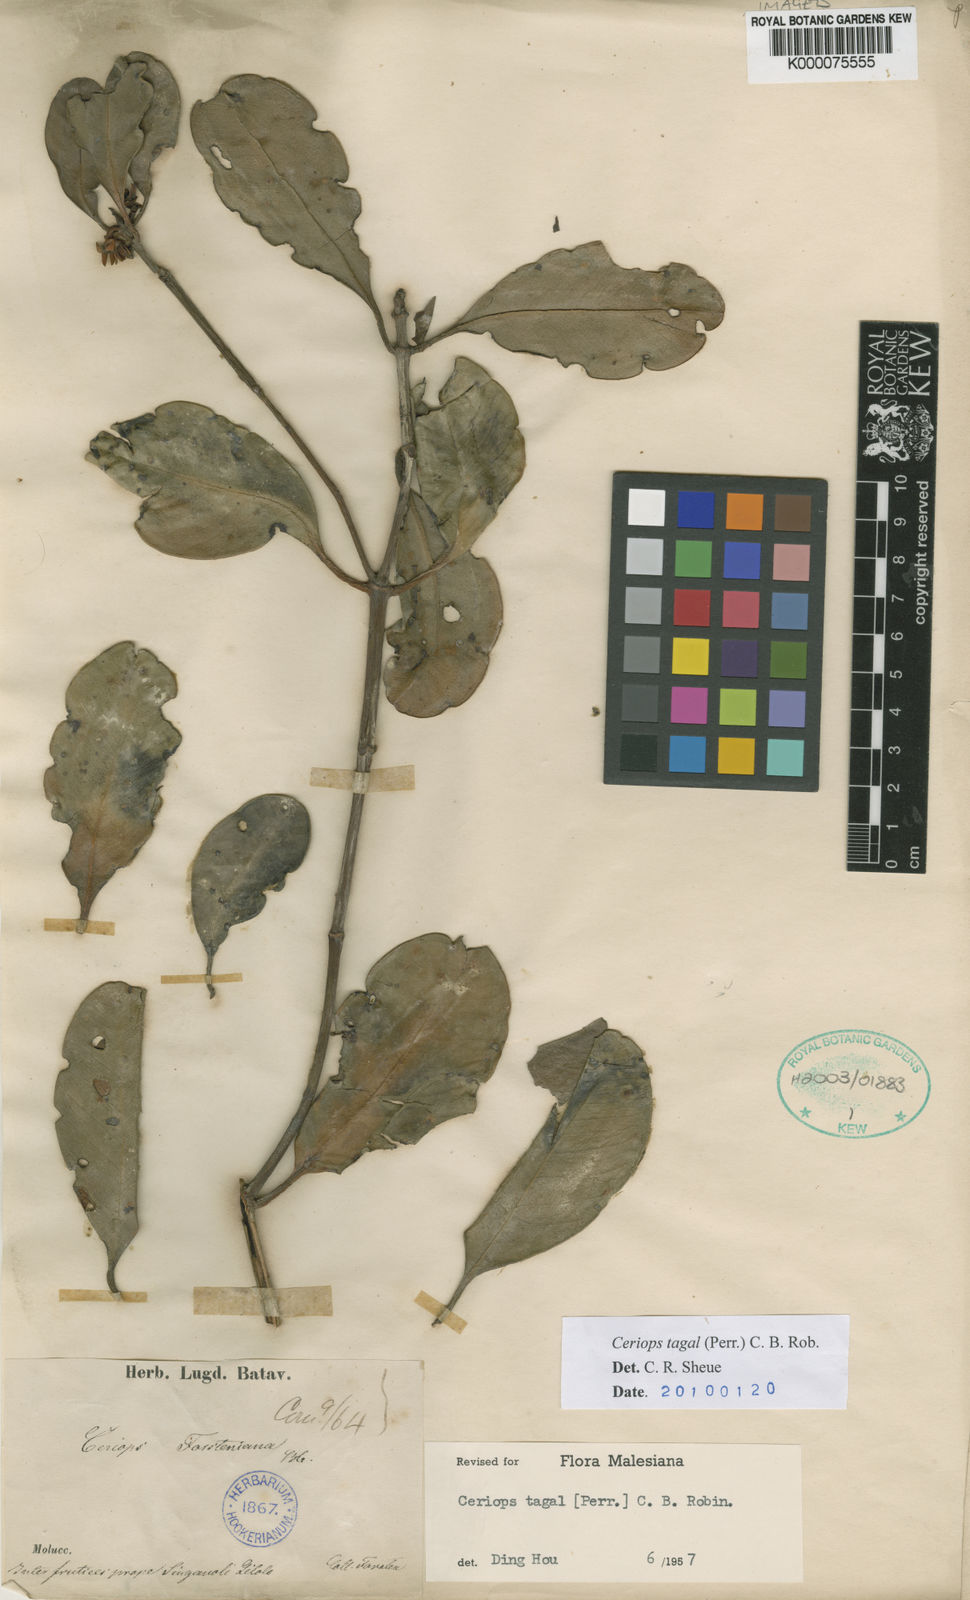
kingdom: Plantae
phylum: Tracheophyta
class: Magnoliopsida
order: Malpighiales
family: Rhizophoraceae
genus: Ceriops
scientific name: Ceriops tagal
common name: Spurred mangrove
